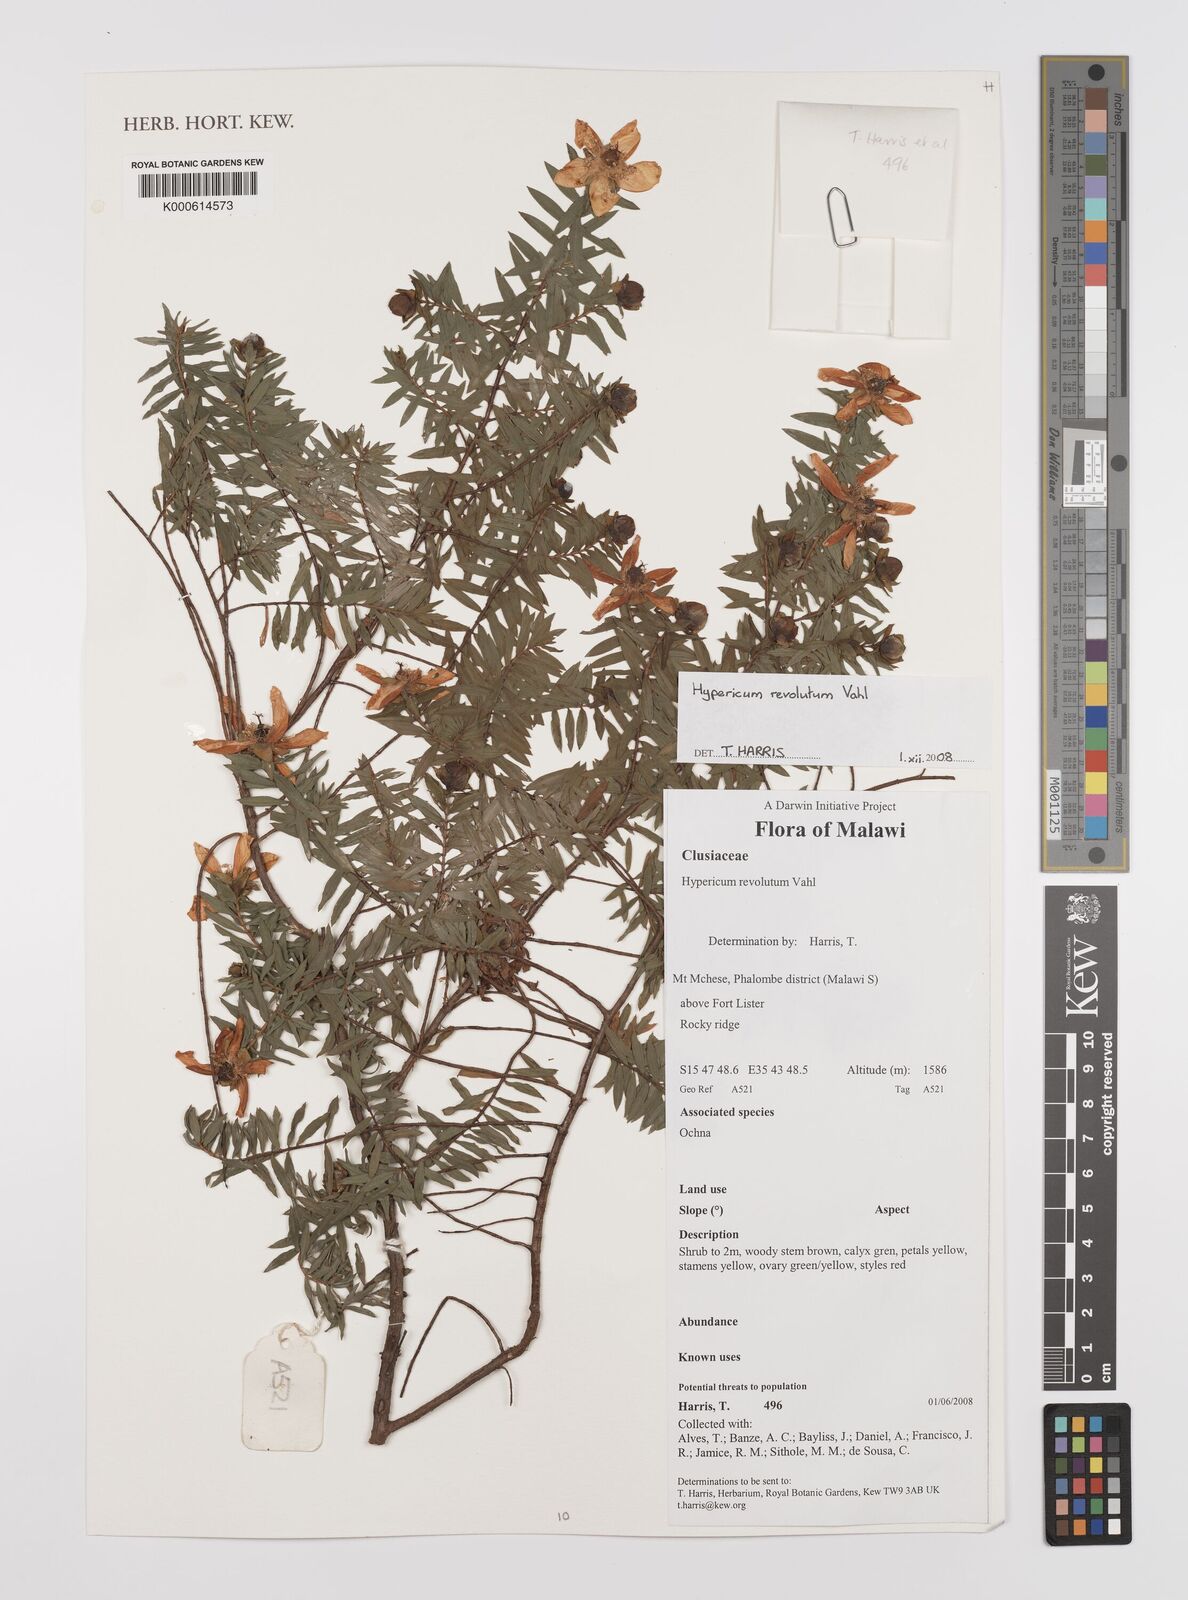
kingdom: Plantae
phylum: Tracheophyta
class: Magnoliopsida
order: Malpighiales
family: Hypericaceae
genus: Hypericum
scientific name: Hypericum revolutum
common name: Curry bush
